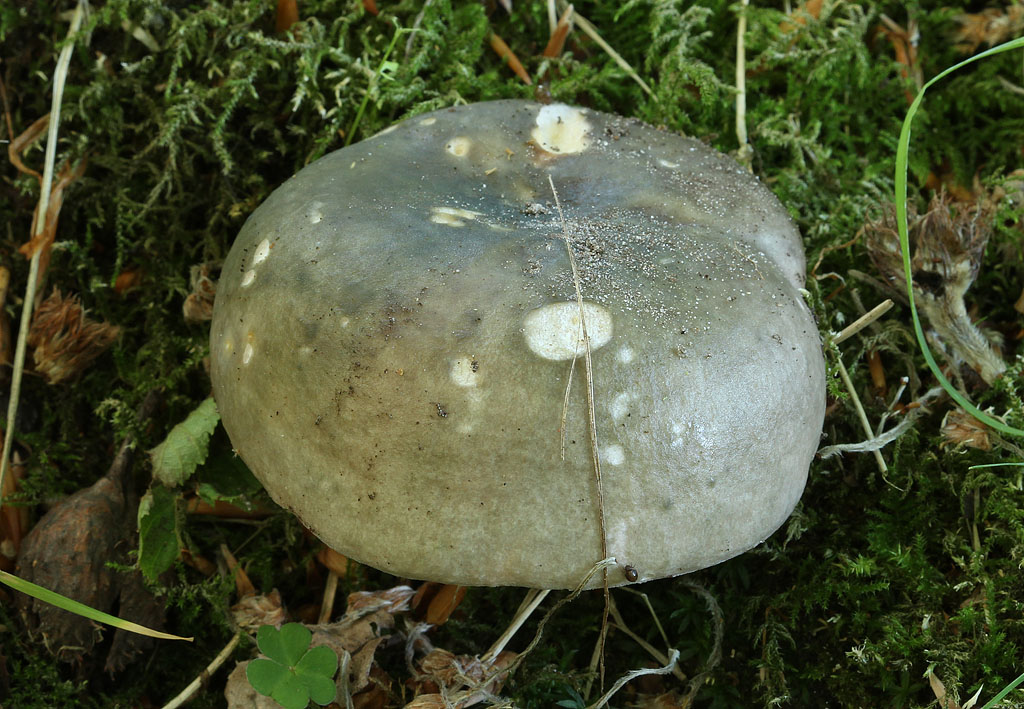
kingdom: Fungi
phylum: Basidiomycota
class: Agaricomycetes
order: Russulales
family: Russulaceae
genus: Russula
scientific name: Russula cyanoxantha
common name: broget skørhat
